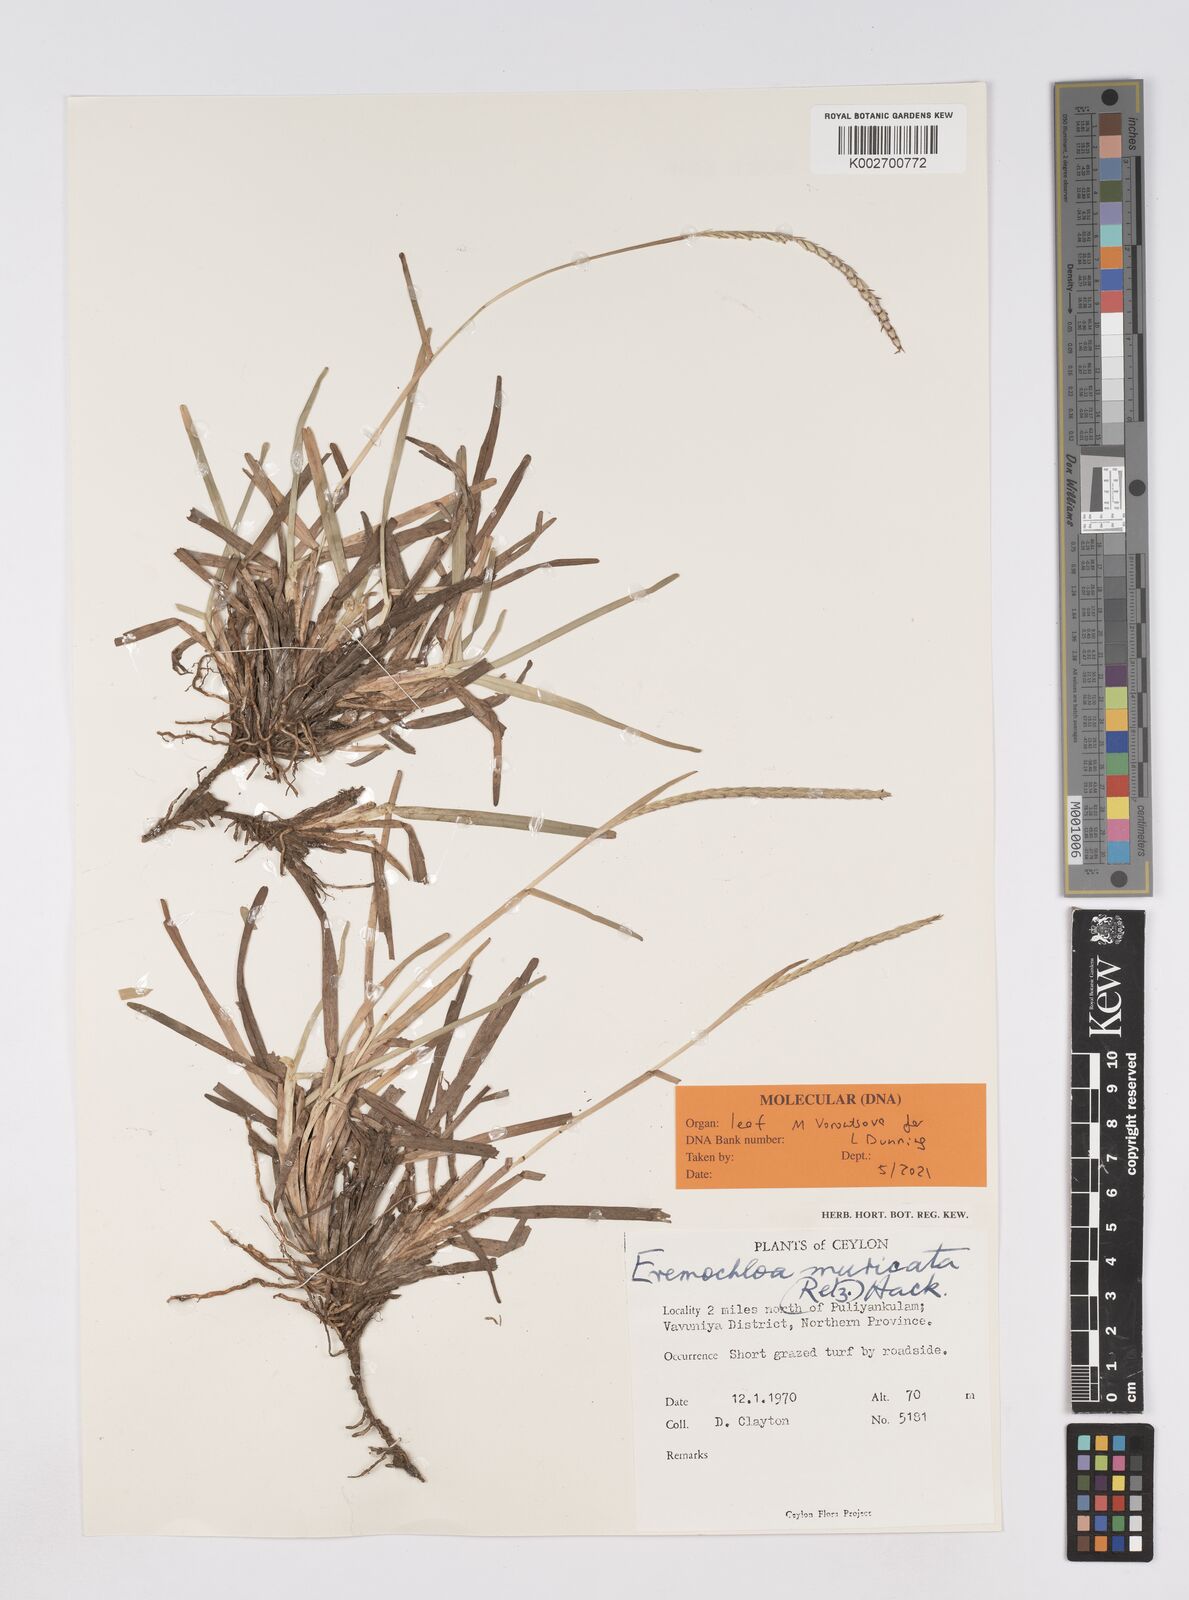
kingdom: Plantae
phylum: Tracheophyta
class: Liliopsida
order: Poales
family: Poaceae
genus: Eremochloa
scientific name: Eremochloa muricata
